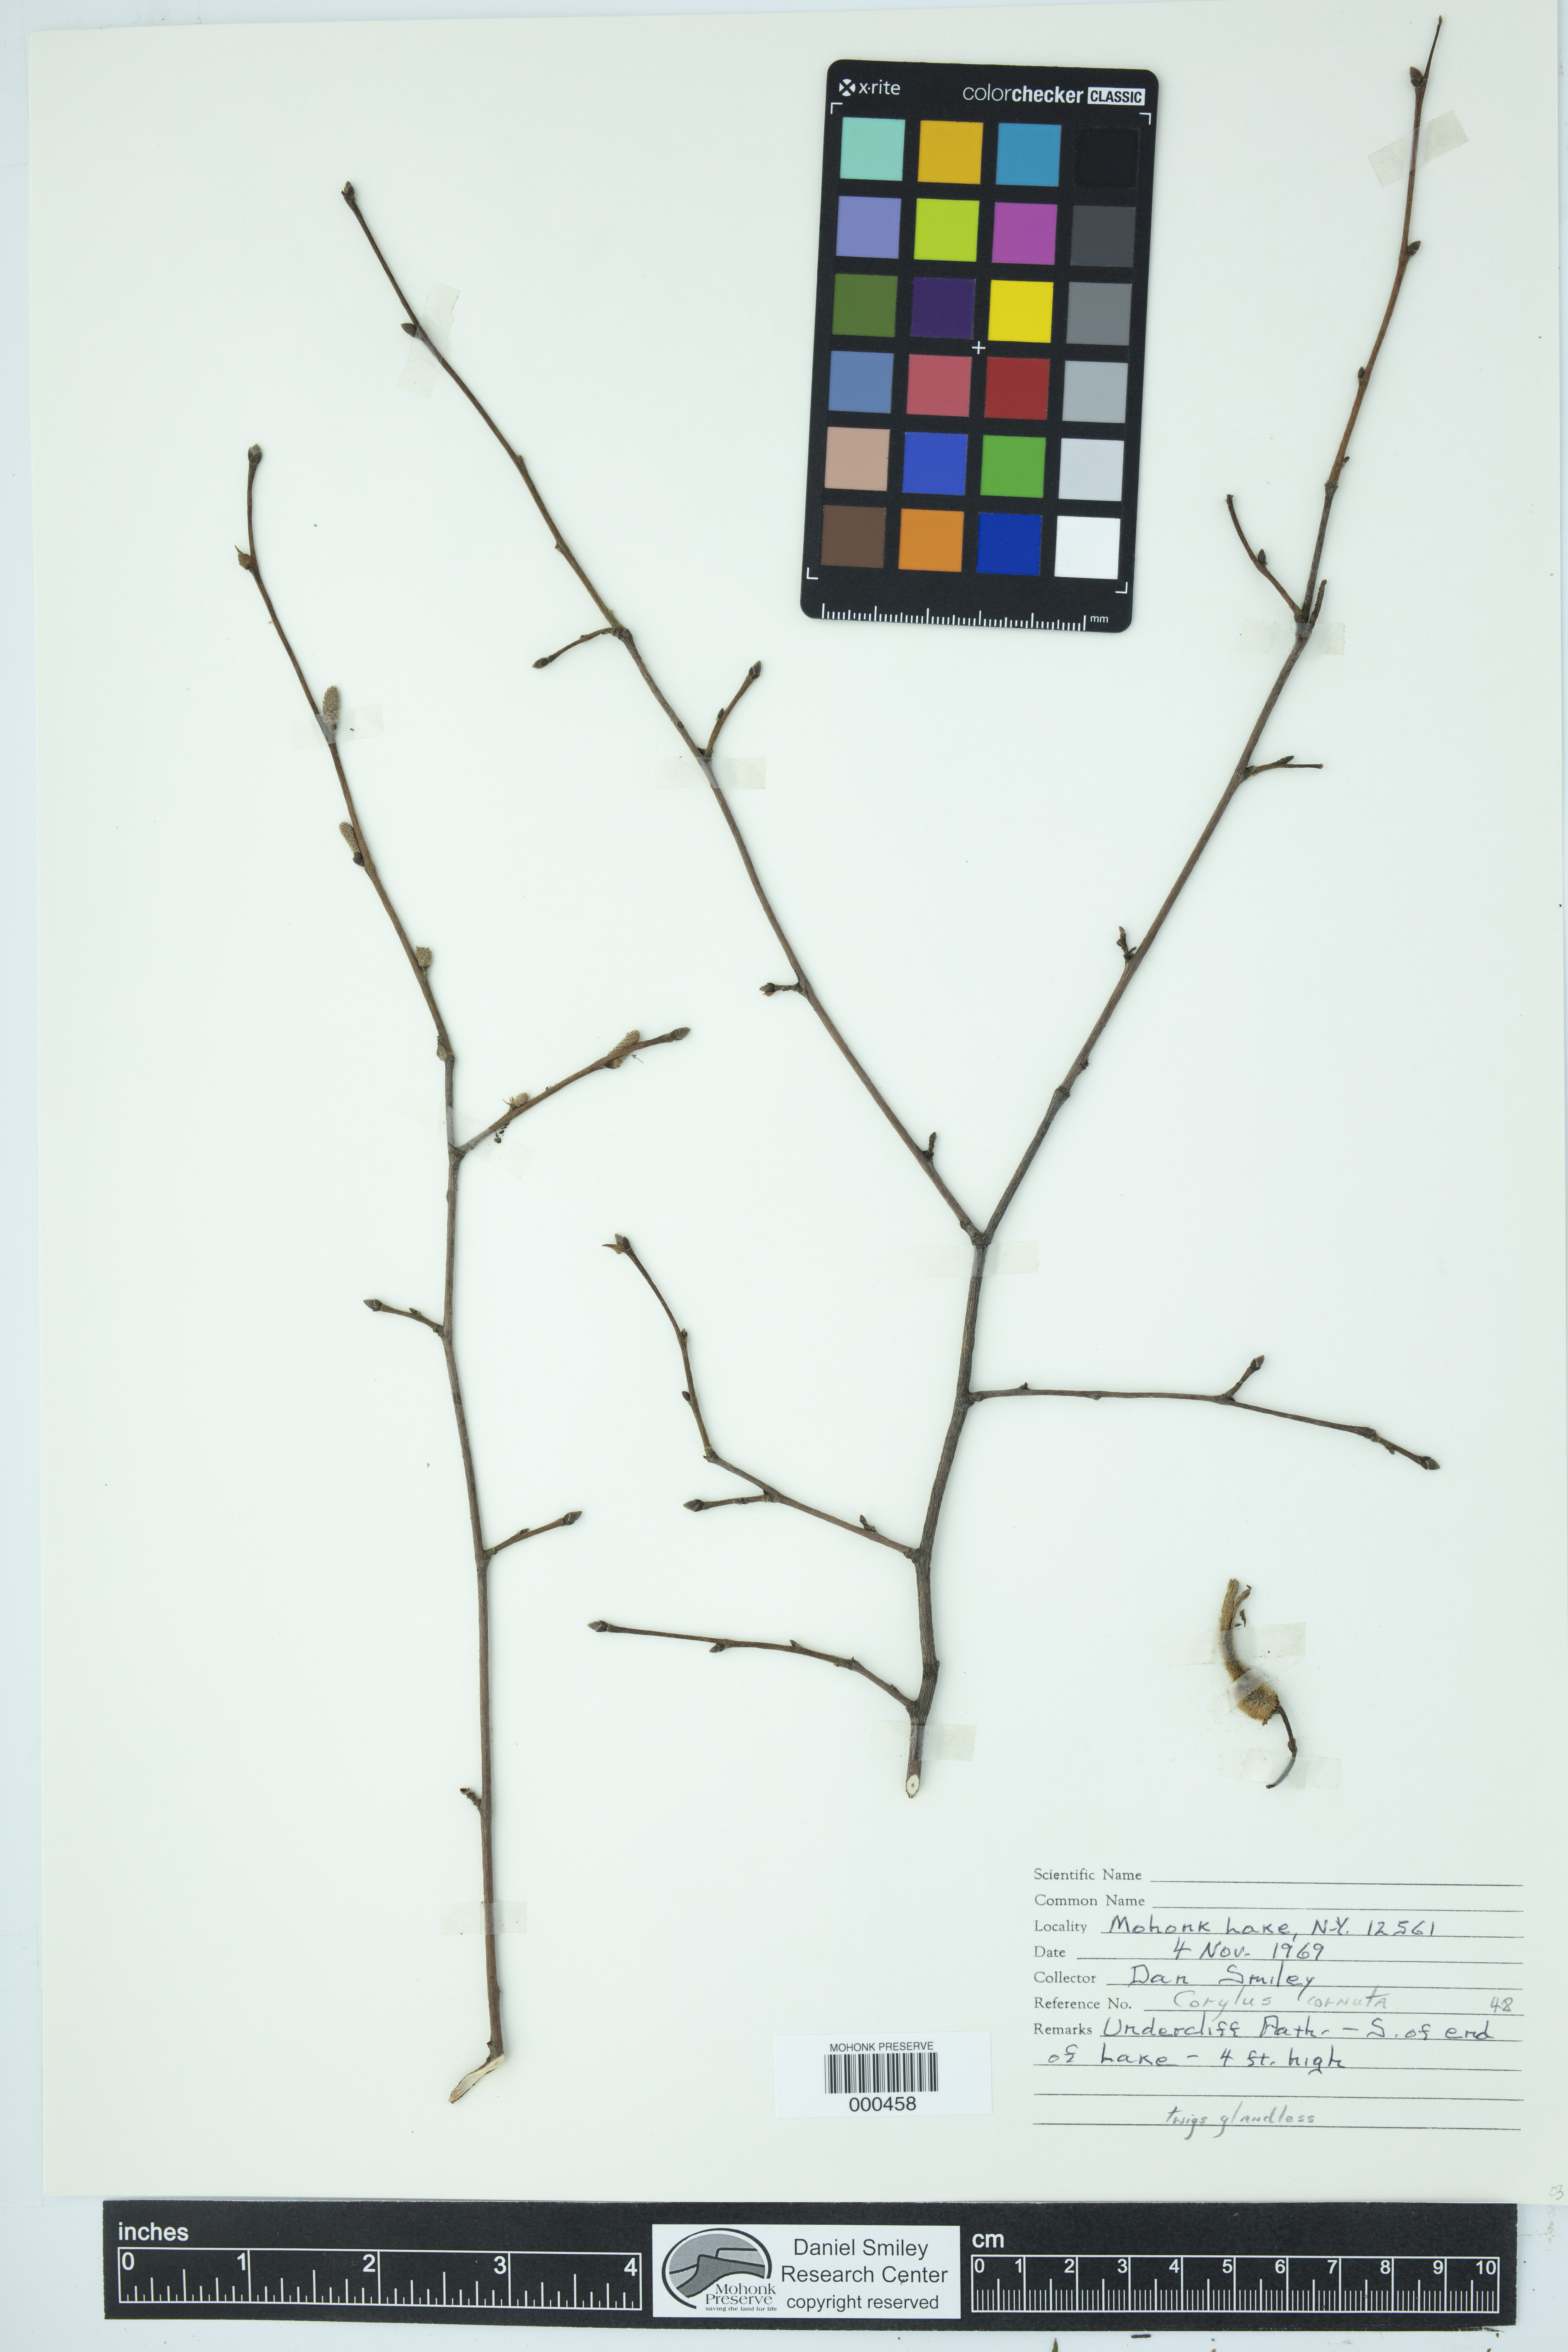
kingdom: Plantae
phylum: Tracheophyta
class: Magnoliopsida
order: Fagales
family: Betulaceae
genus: Corylus
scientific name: Corylus cornuta
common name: Beaked hazel
